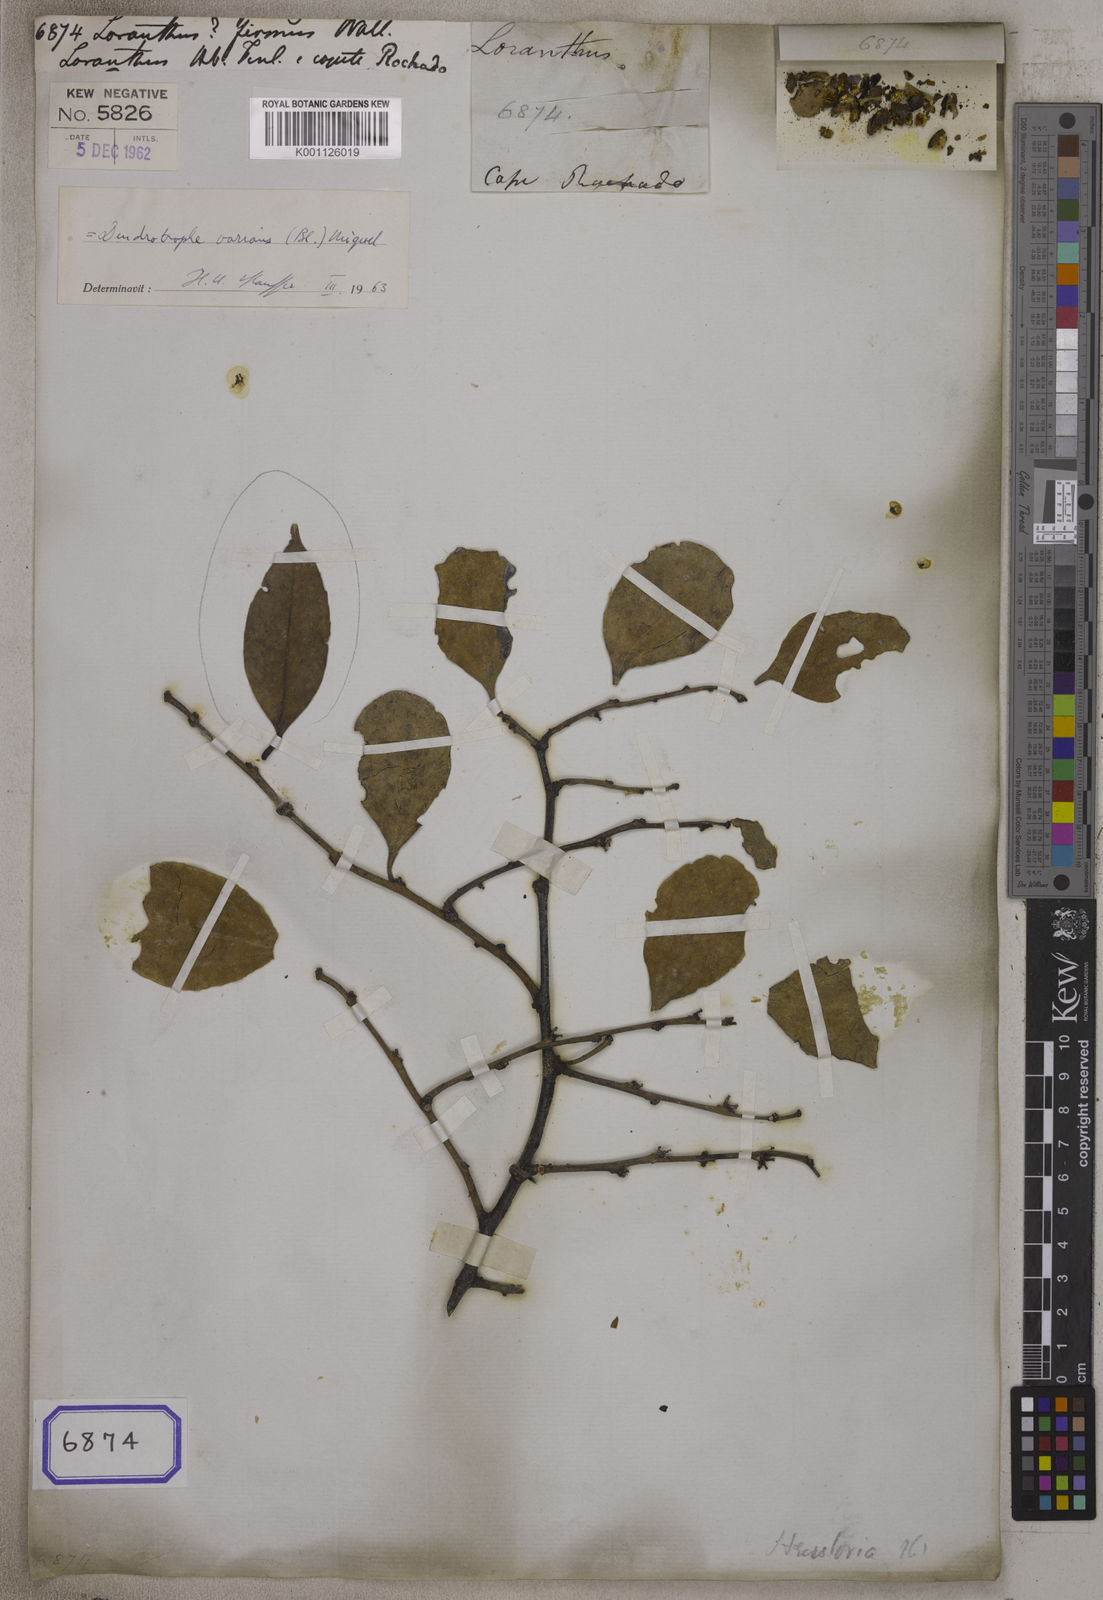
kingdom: Plantae
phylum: Tracheophyta
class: Magnoliopsida
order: Santalales
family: Amphorogynaceae
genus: Dendrotrophe
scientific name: Dendrotrophe umbellata
